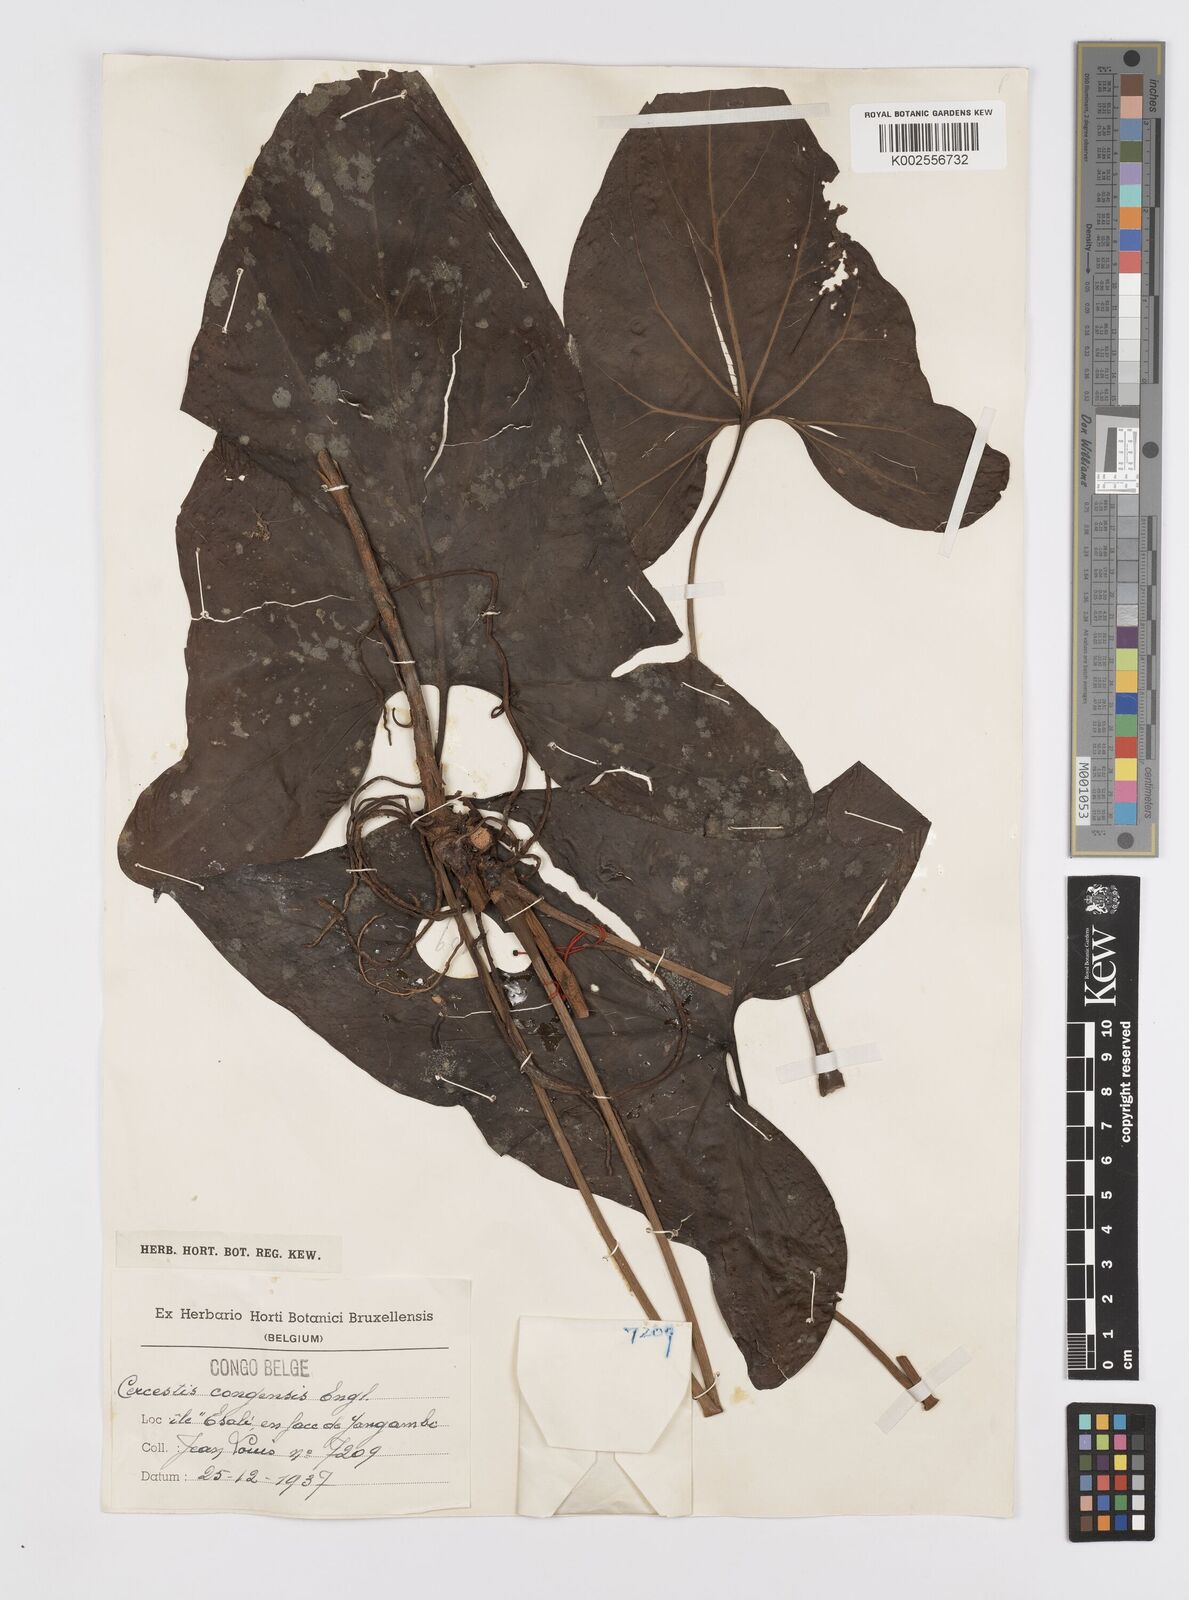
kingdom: Plantae
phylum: Tracheophyta
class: Liliopsida
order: Alismatales
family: Araceae
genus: Cercestis
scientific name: Cercestis congoensis
